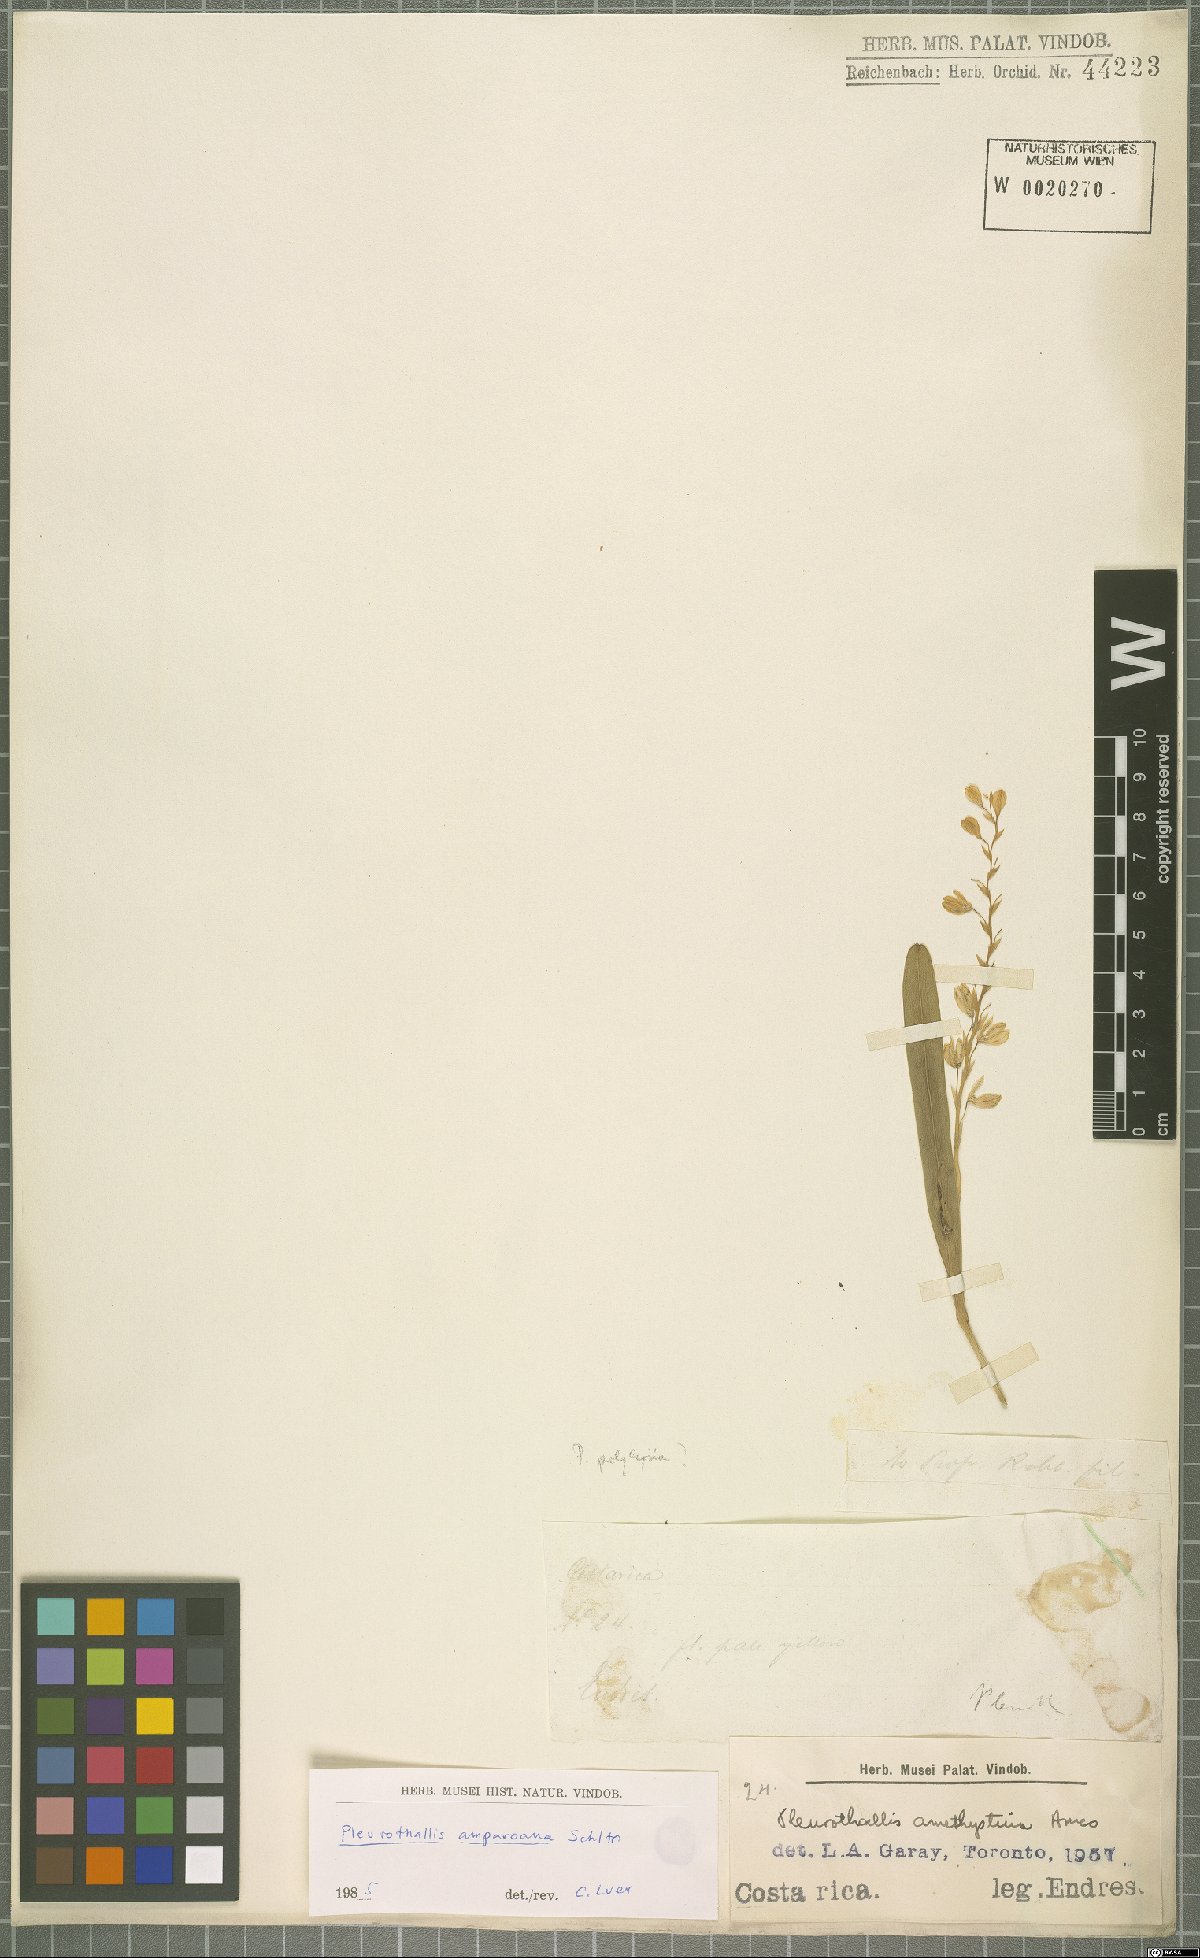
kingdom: Plantae
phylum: Tracheophyta
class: Liliopsida
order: Asparagales
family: Orchidaceae
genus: Stelis
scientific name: Stelis pilosa
